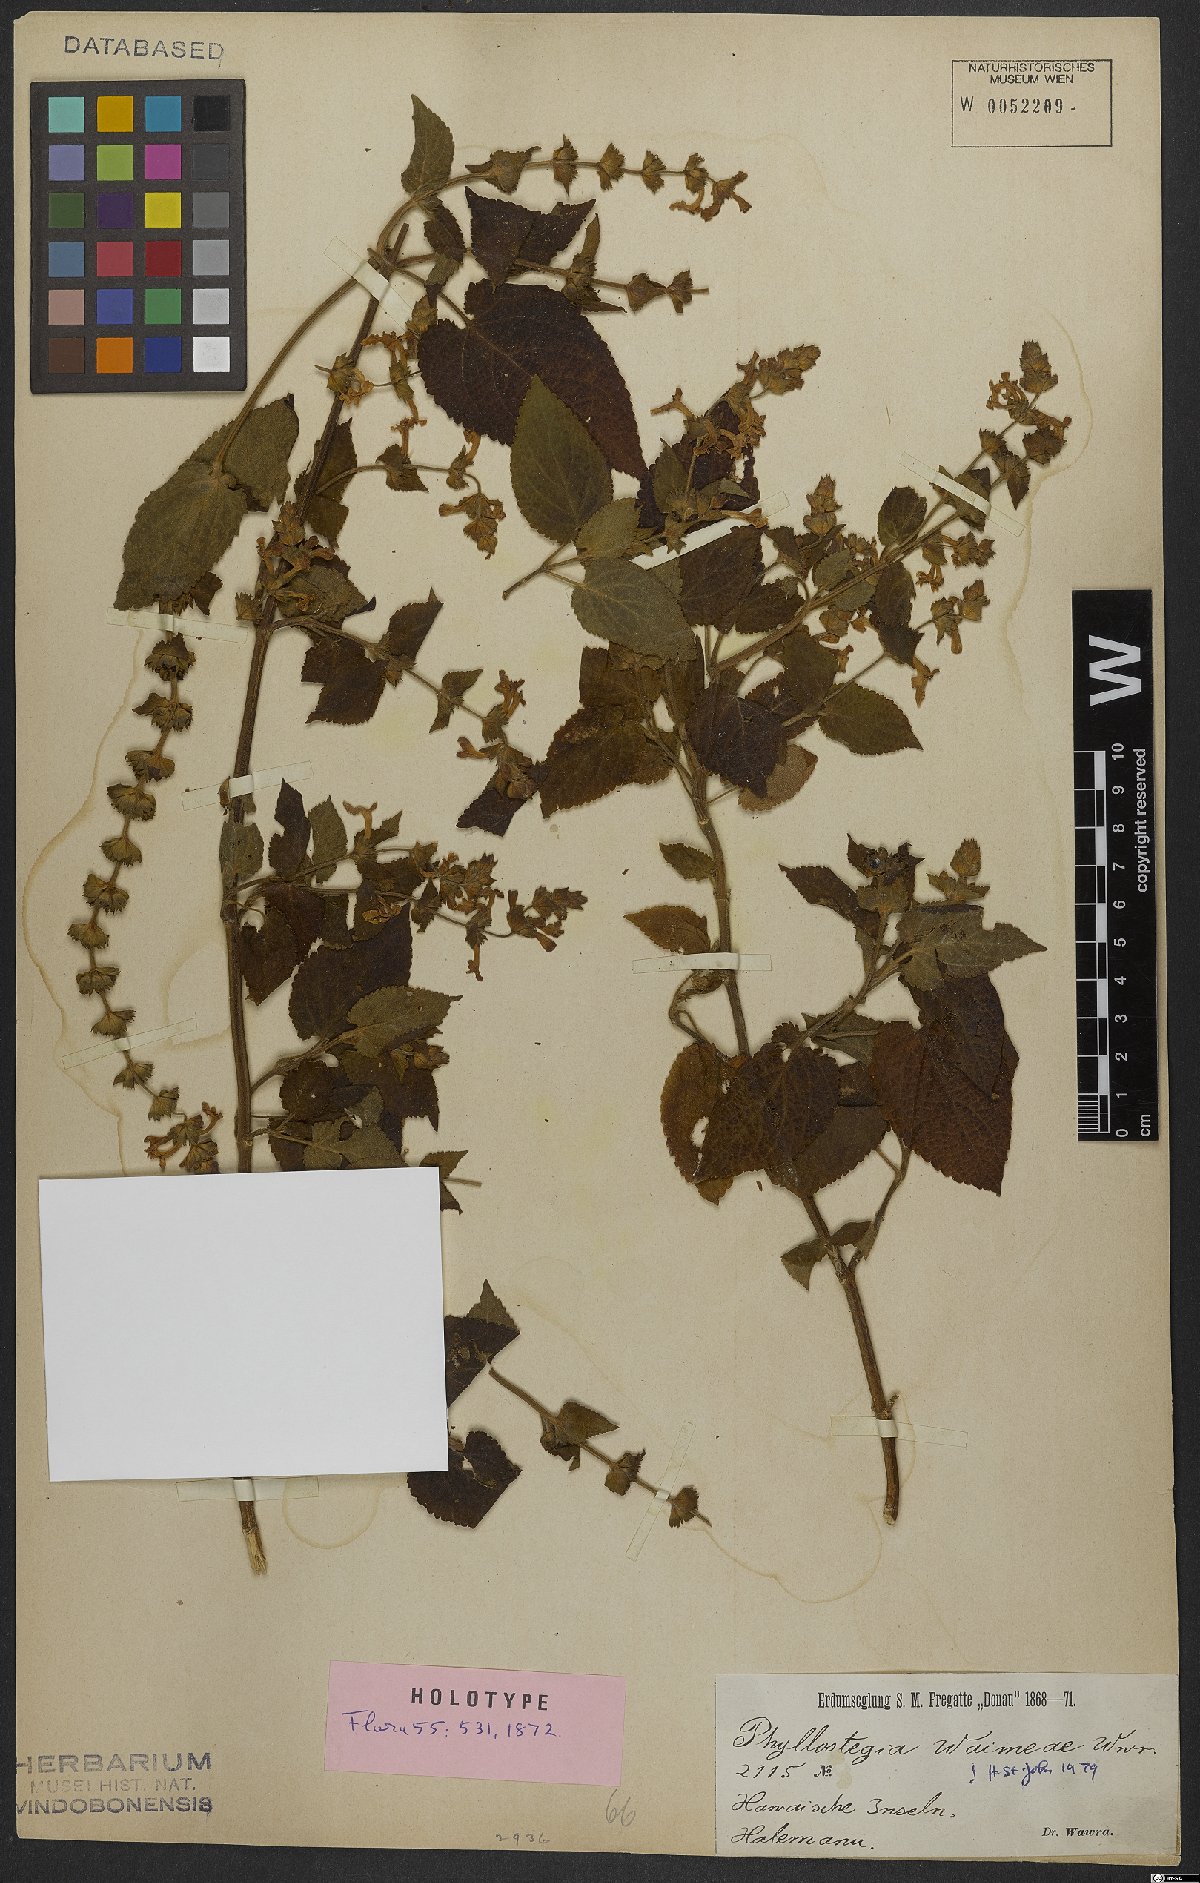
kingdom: Plantae
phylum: Tracheophyta
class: Magnoliopsida
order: Lamiales
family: Lamiaceae
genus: Phyllostegia
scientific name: Phyllostegia waimeae
